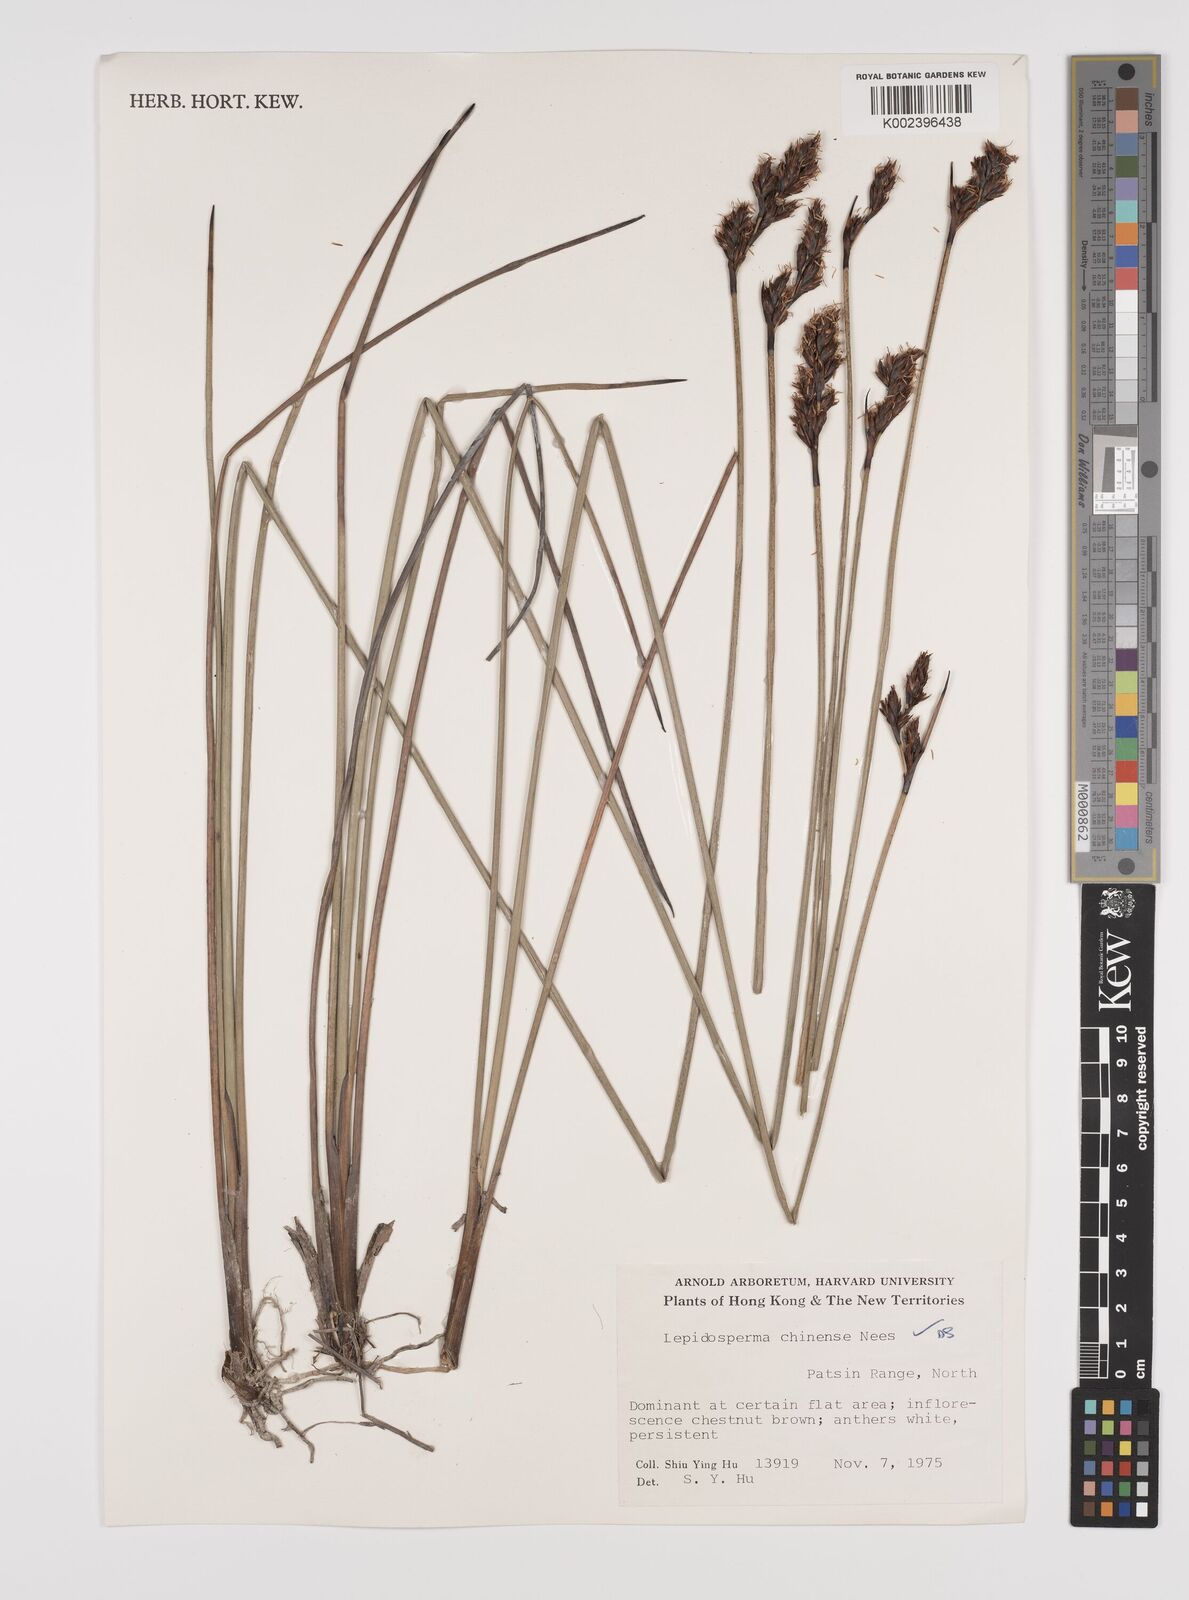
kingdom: Plantae
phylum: Tracheophyta
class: Liliopsida
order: Poales
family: Cyperaceae
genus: Lepidosperma
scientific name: Lepidosperma chinense
